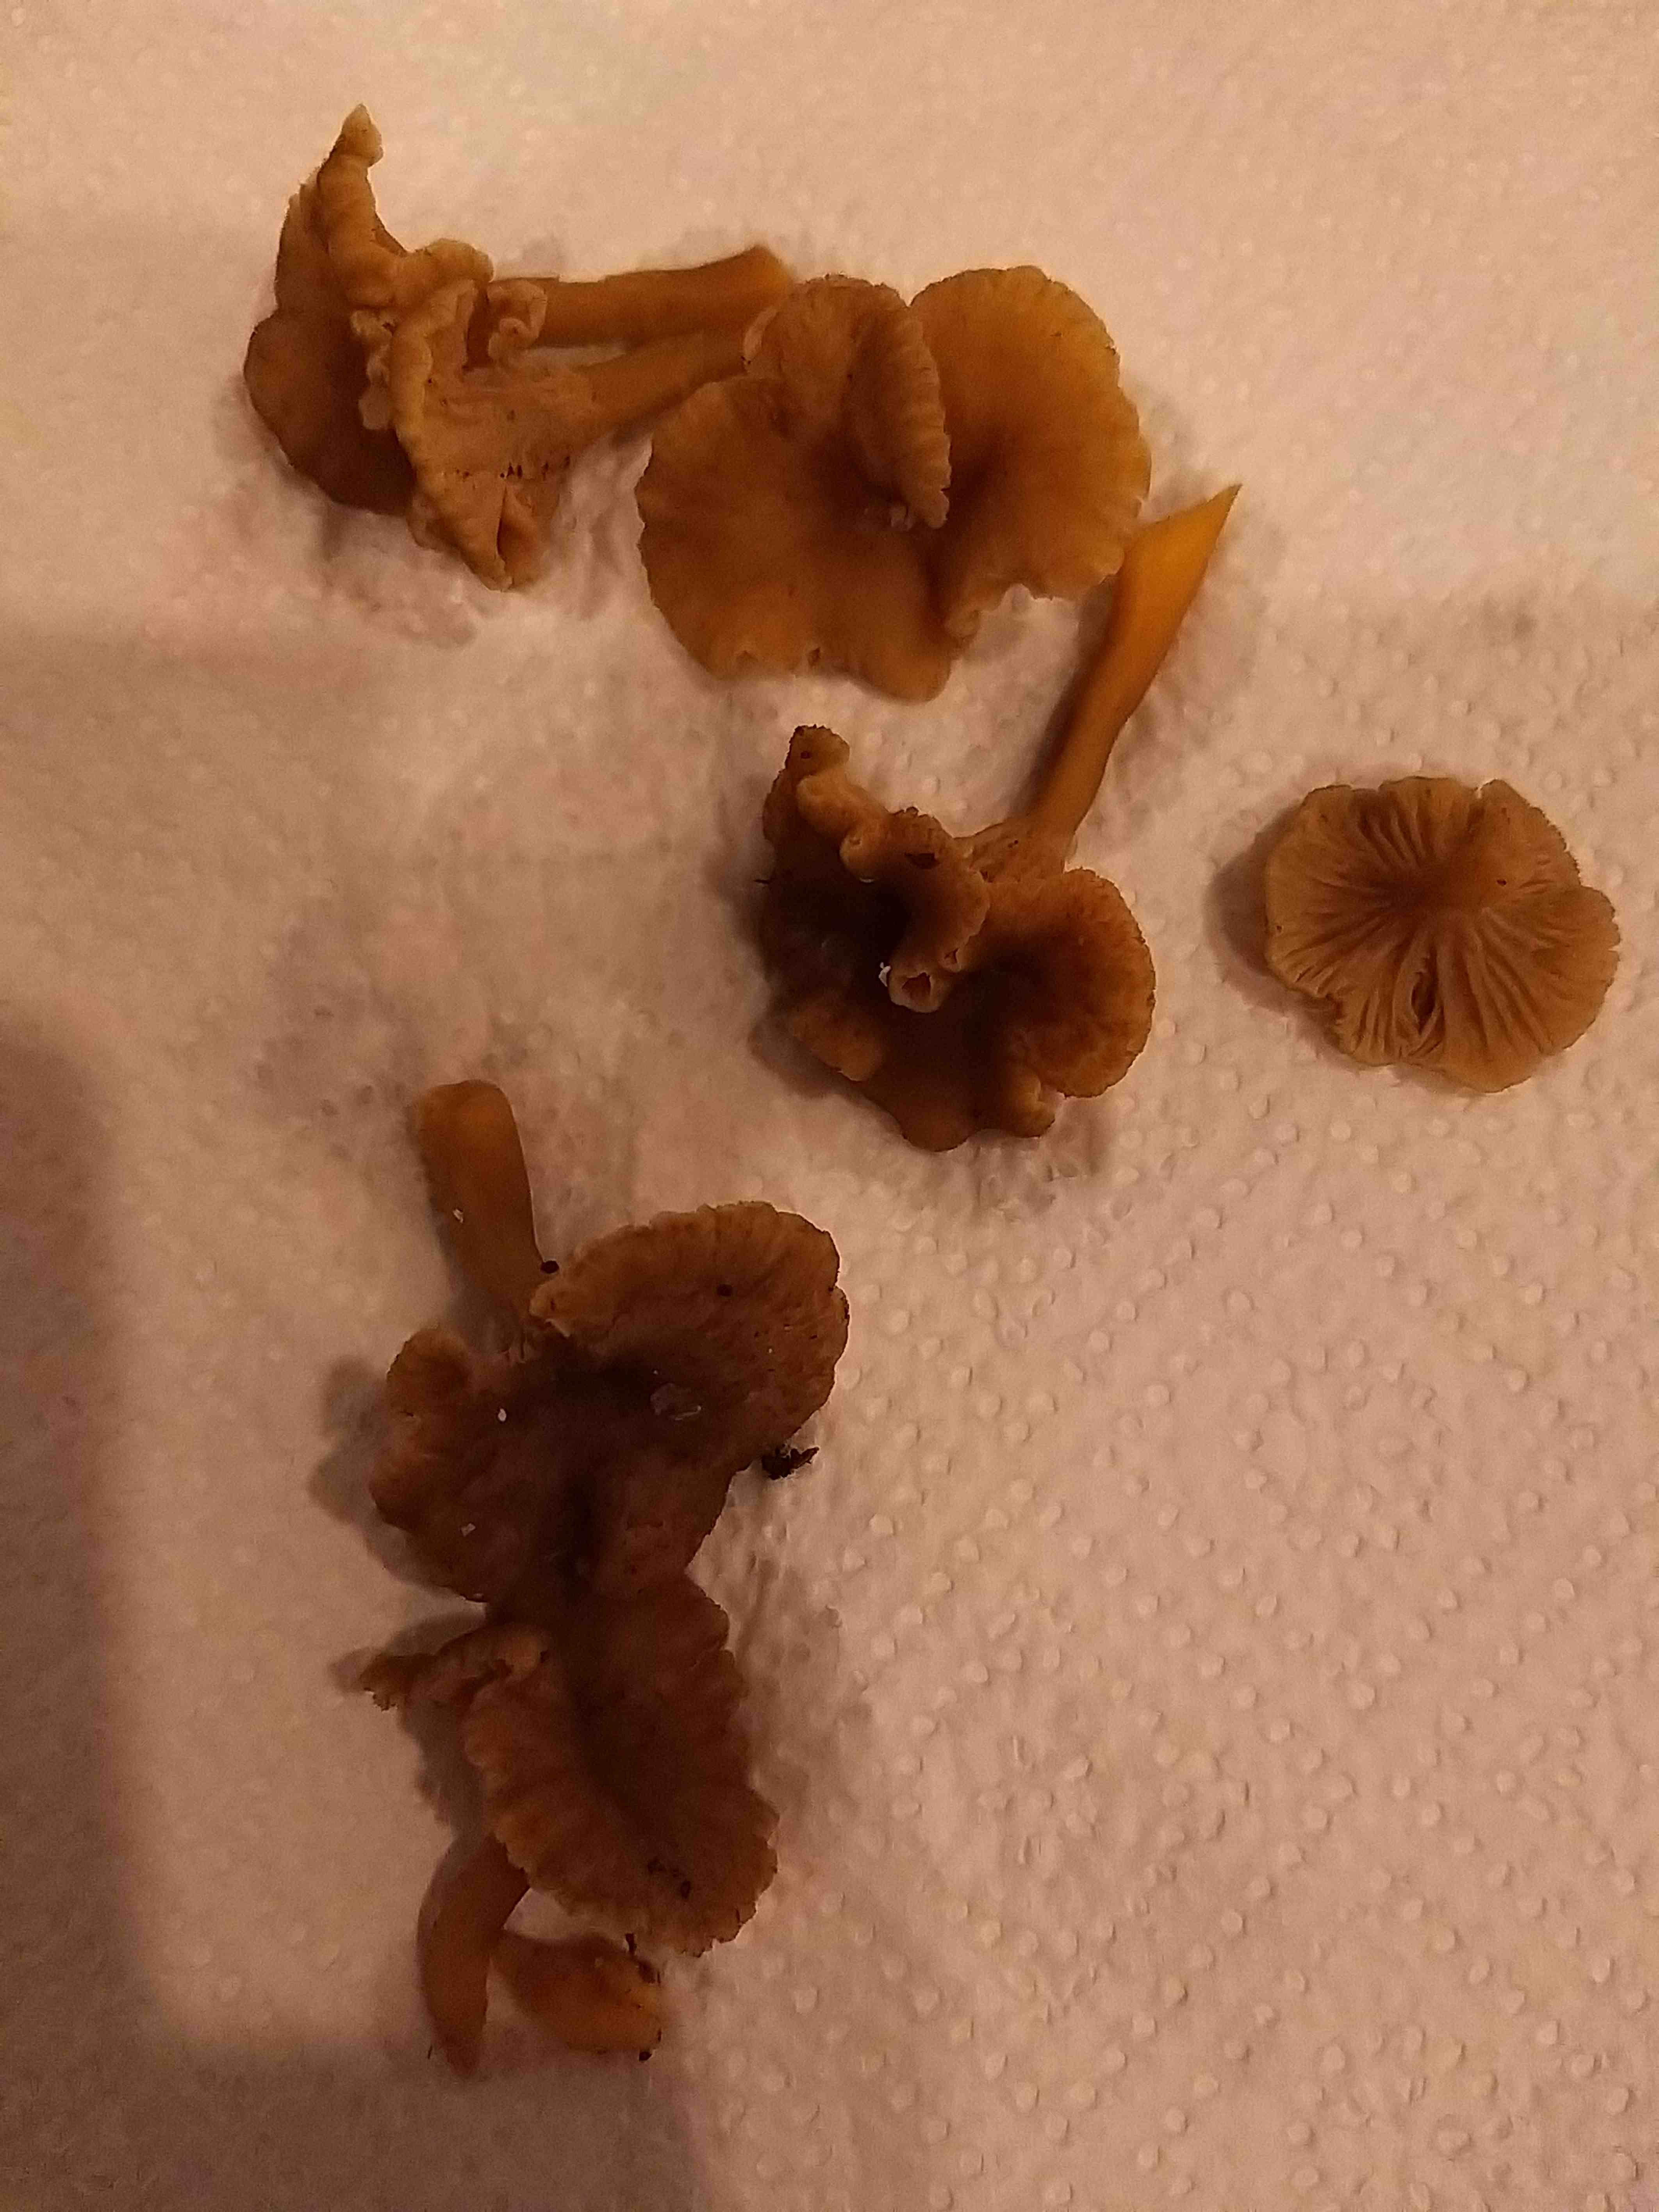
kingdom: Fungi
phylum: Basidiomycota
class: Agaricomycetes
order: Cantharellales
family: Hydnaceae
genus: Craterellus
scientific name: Craterellus tubaeformis
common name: tragt-kantarel
